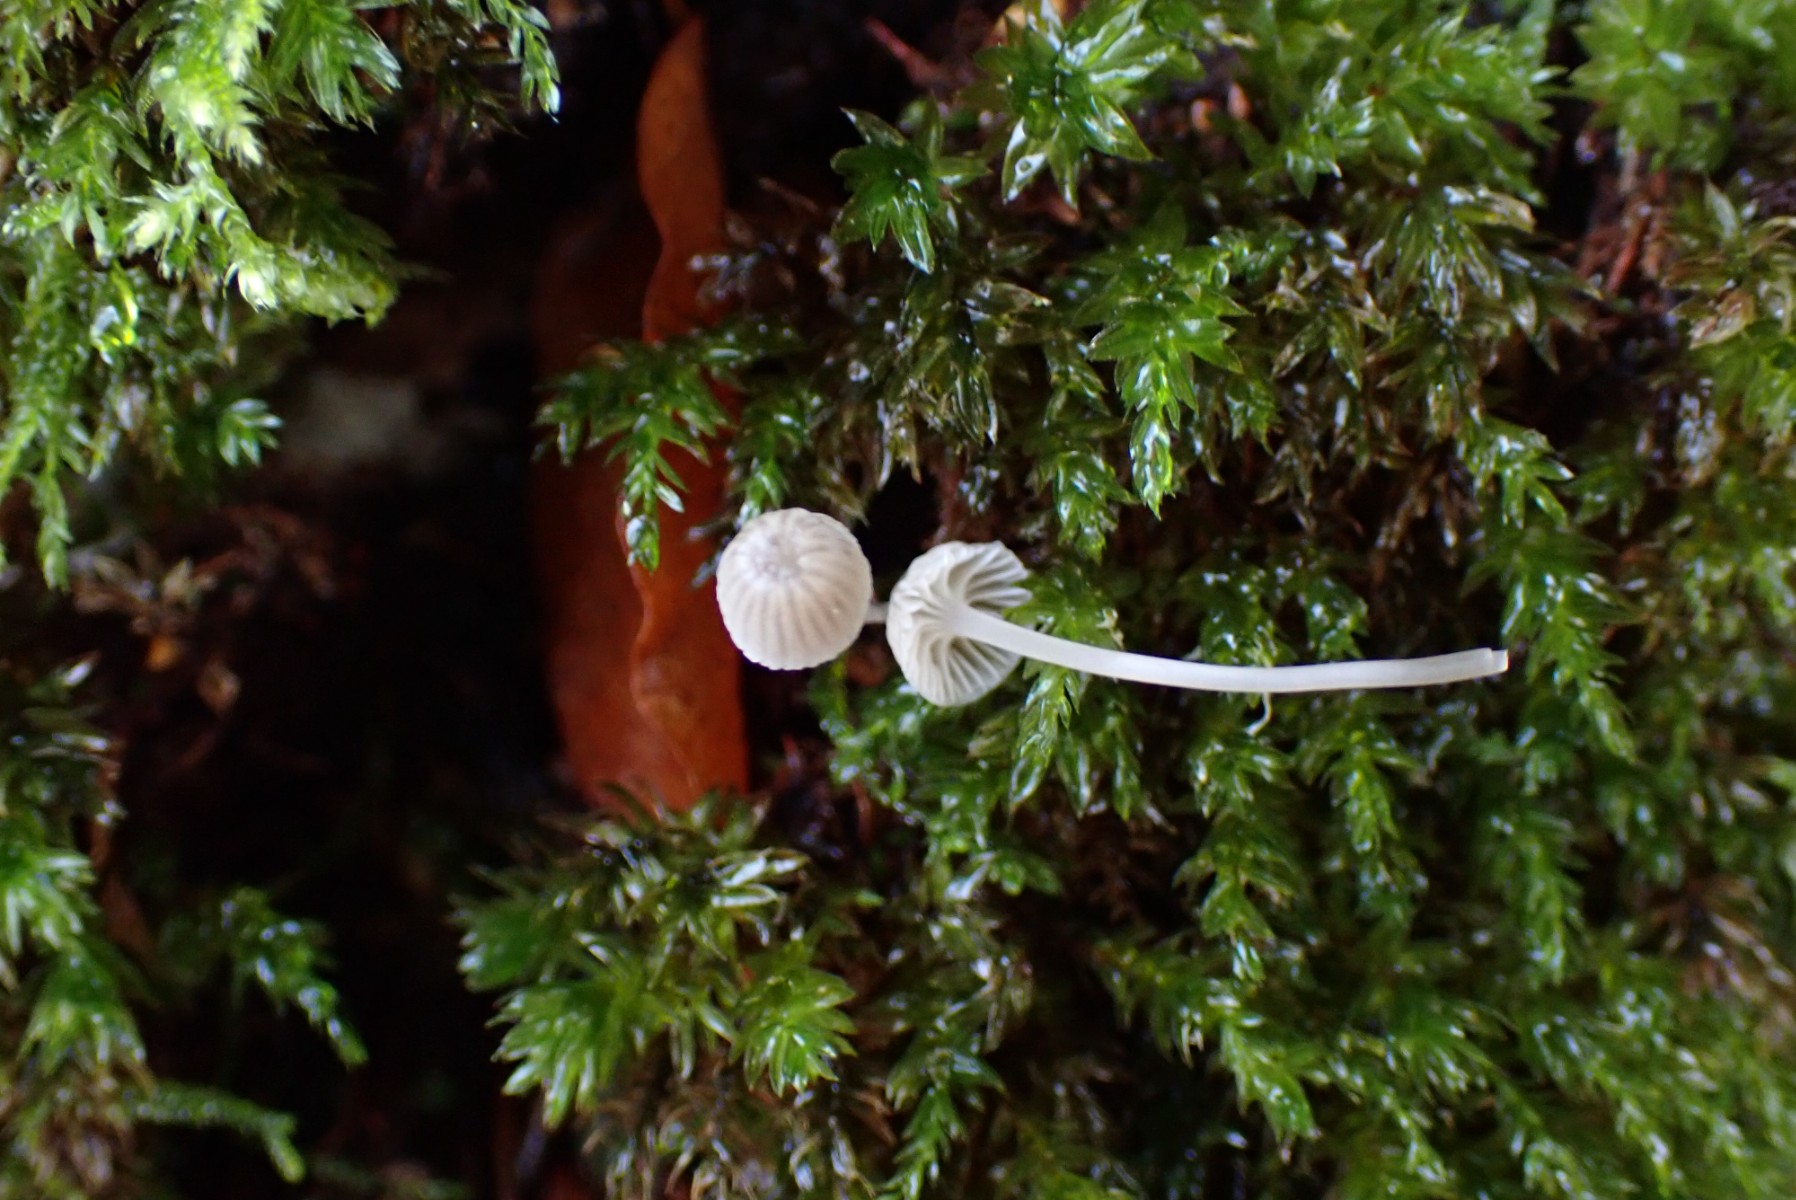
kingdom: Fungi
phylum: Basidiomycota
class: Agaricomycetes
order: Agaricales
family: Mycenaceae
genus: Mycena
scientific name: Mycena cinerella
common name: mel-huesvamp
